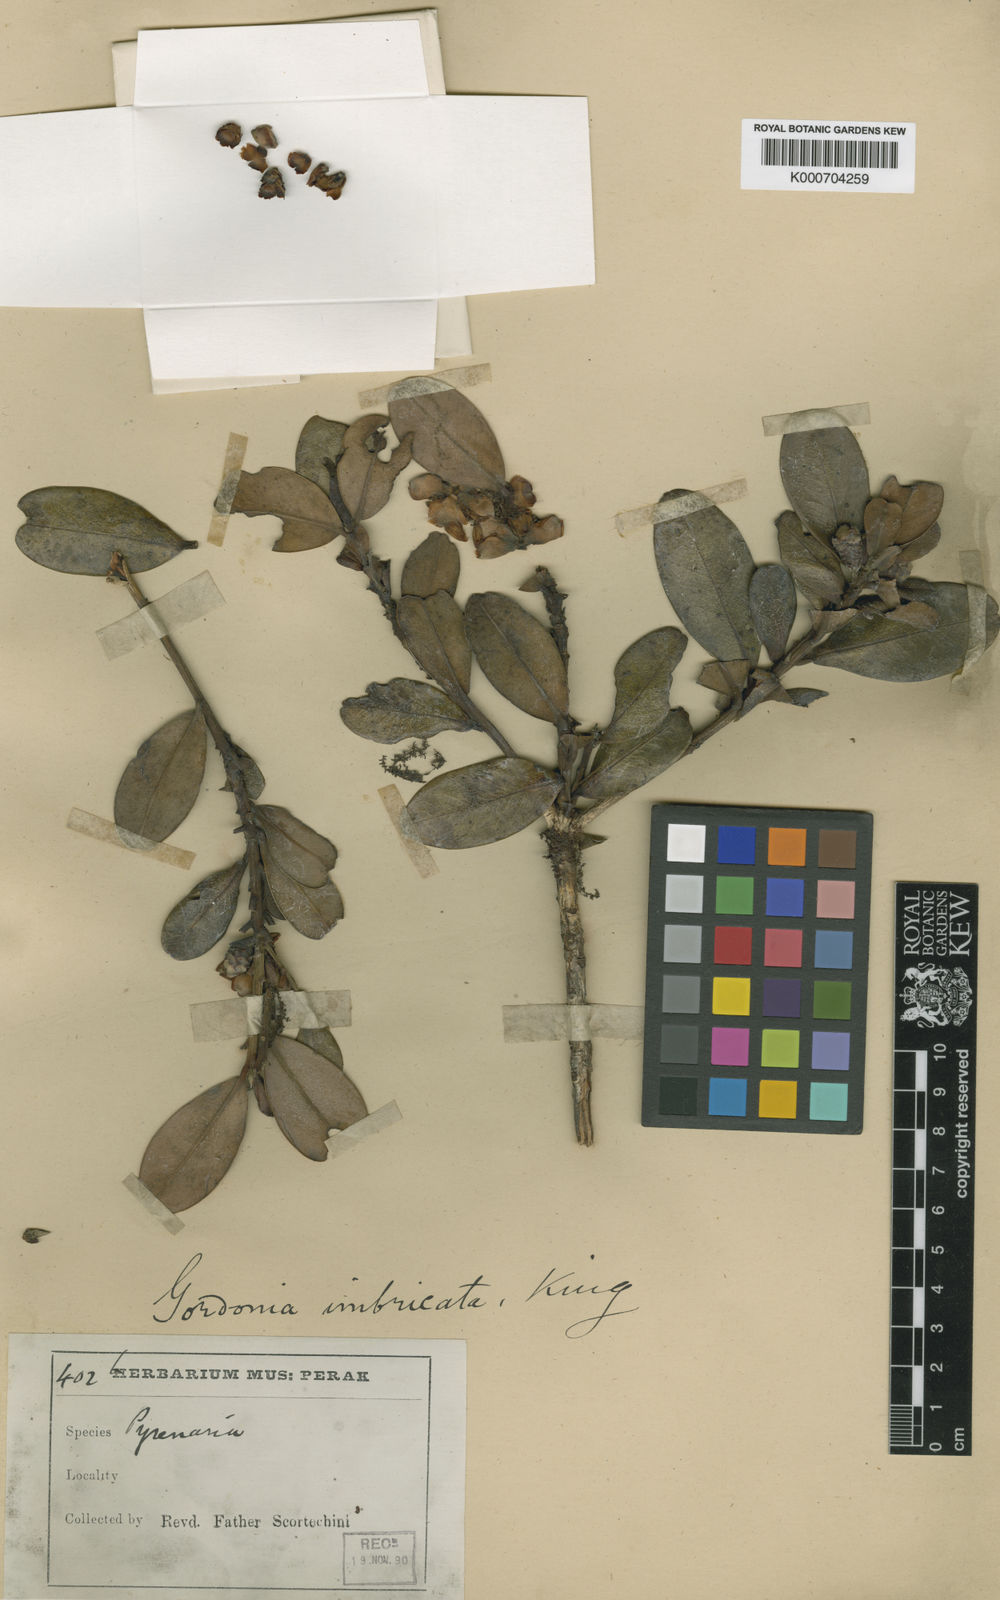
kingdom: Plantae
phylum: Tracheophyta
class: Magnoliopsida
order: Ericales
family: Theaceae
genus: Polyspora
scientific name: Polyspora imbricata
